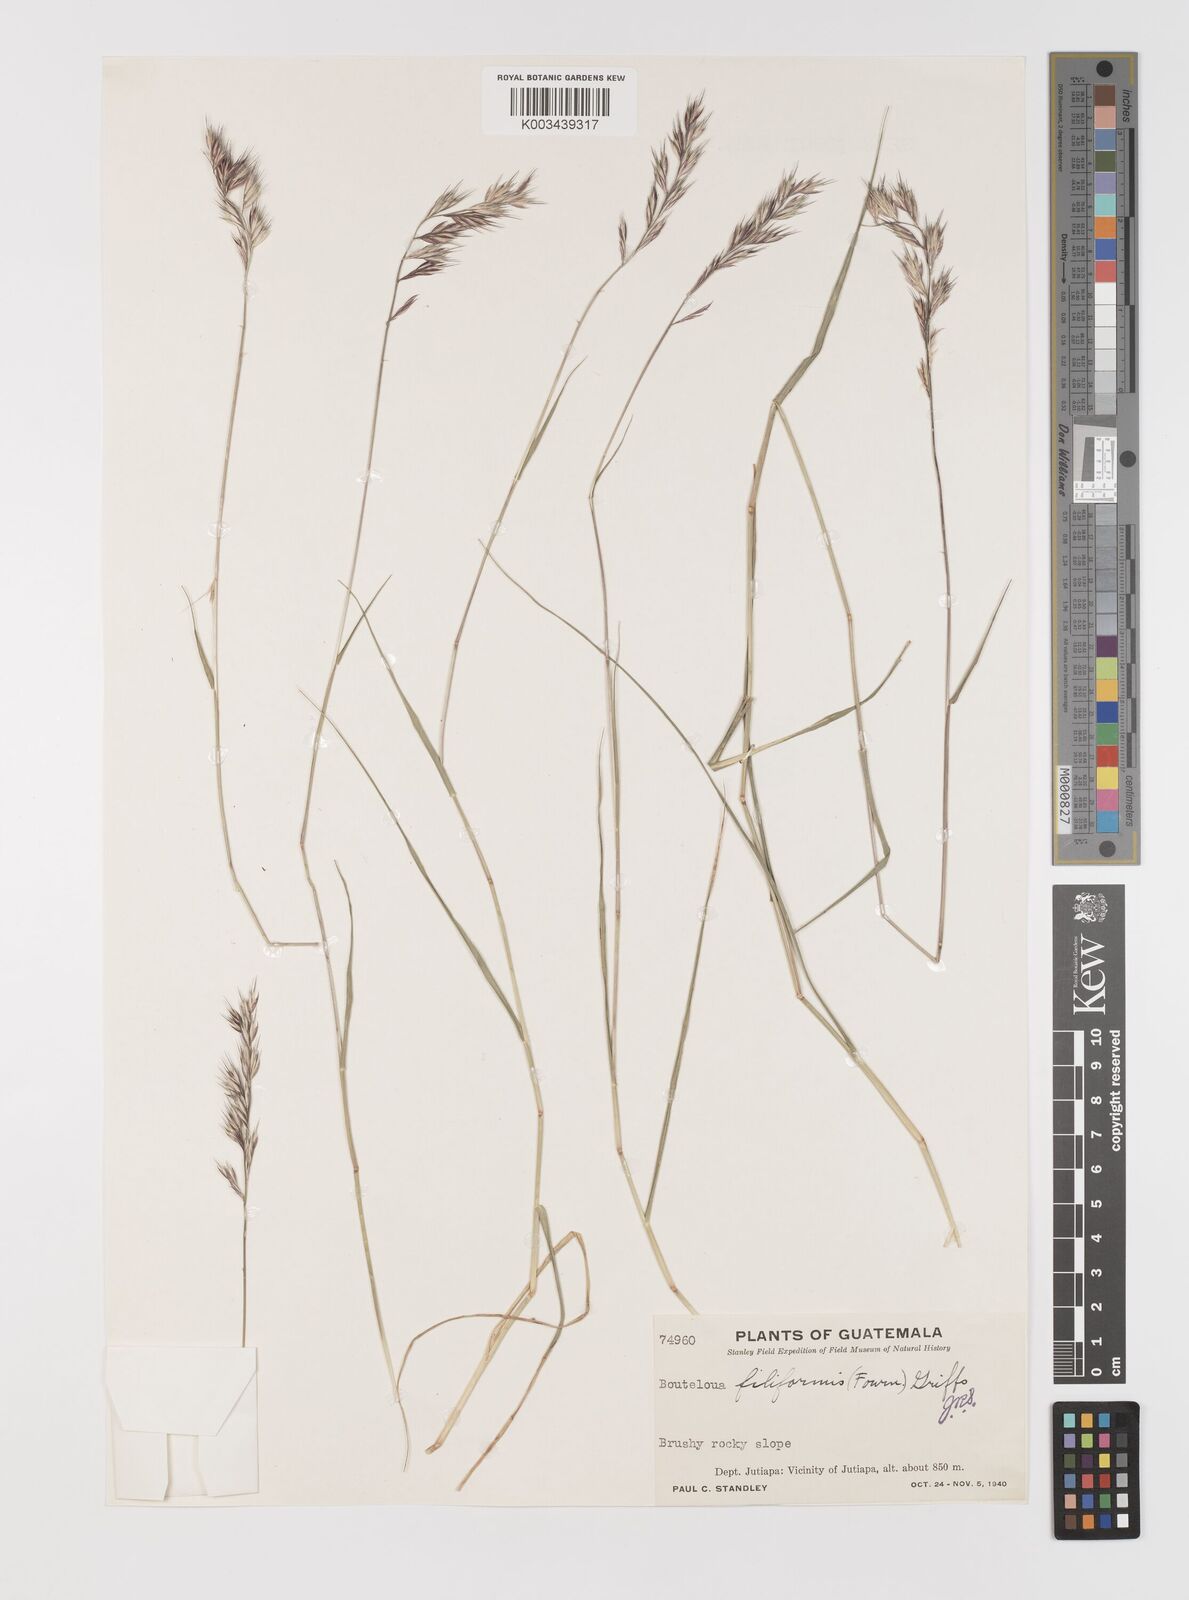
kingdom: Plantae
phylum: Tracheophyta
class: Liliopsida
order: Poales
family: Poaceae
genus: Bouteloua
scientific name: Bouteloua repens
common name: Slender grama
